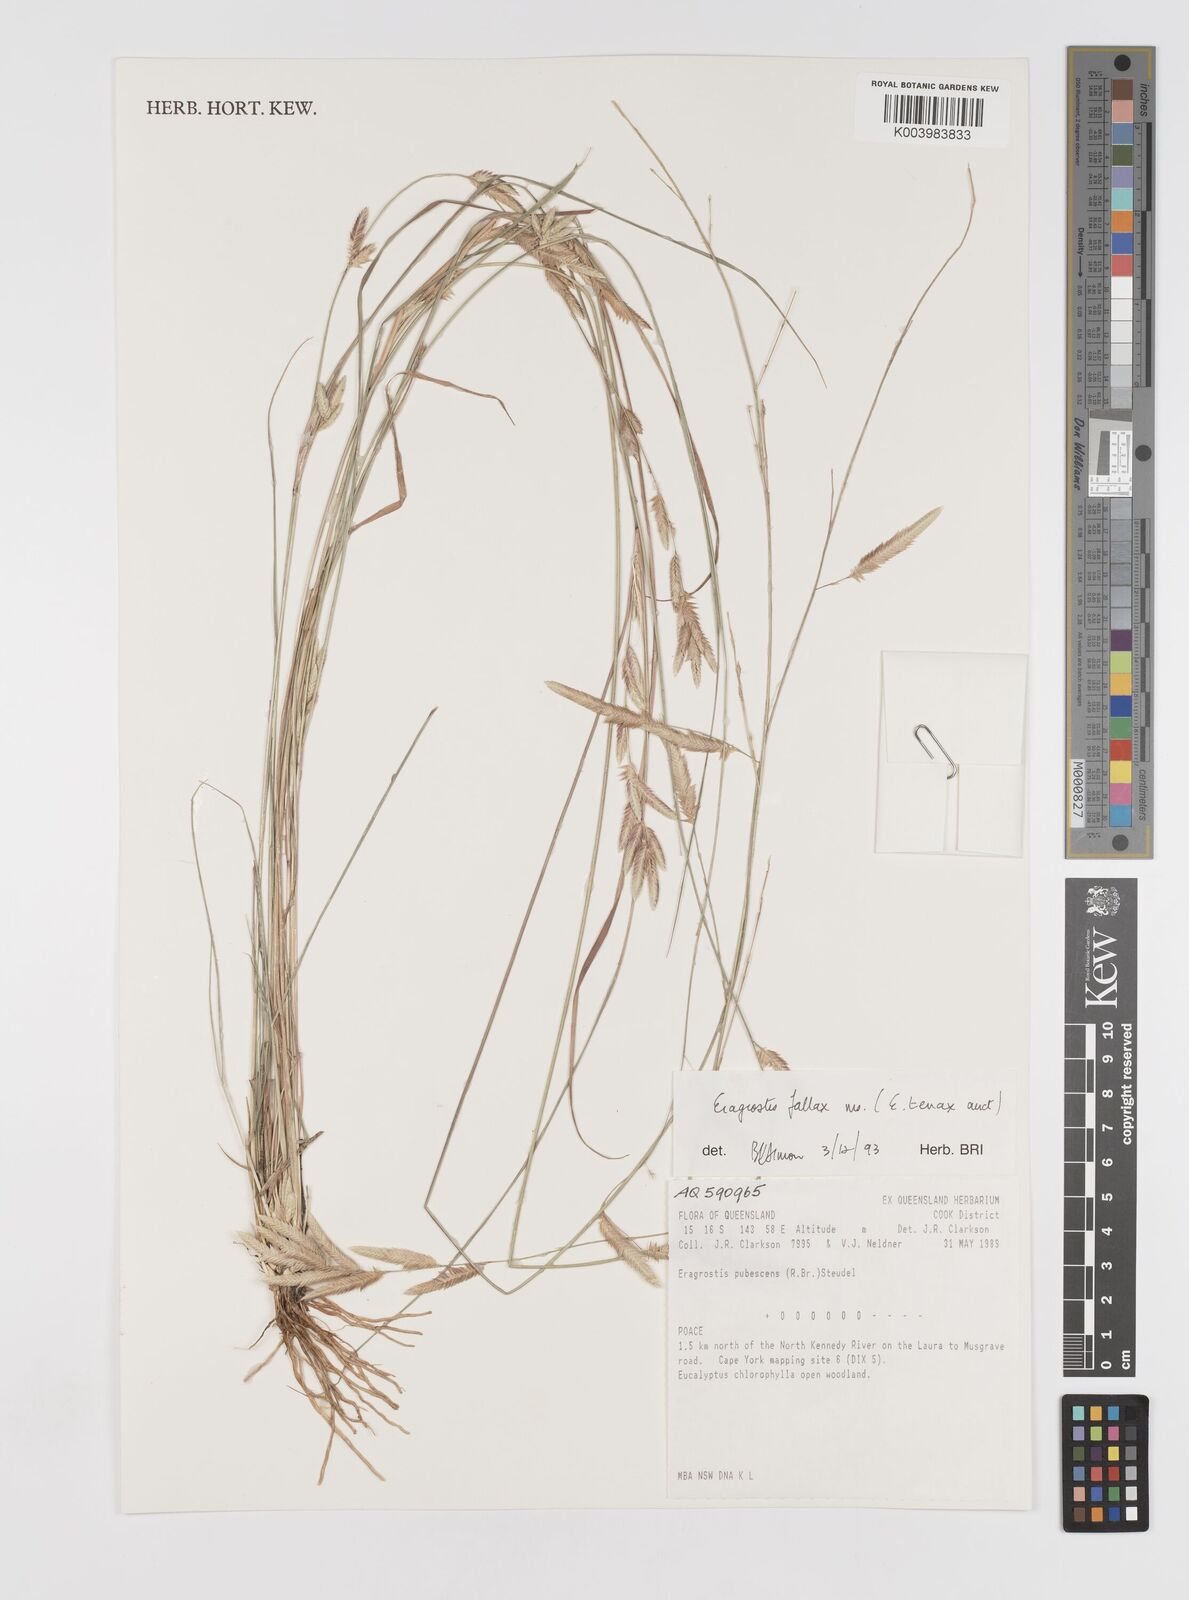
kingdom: Plantae
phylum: Tracheophyta
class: Liliopsida
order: Poales
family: Poaceae
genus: Eragrostis
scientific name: Eragrostis fallax
